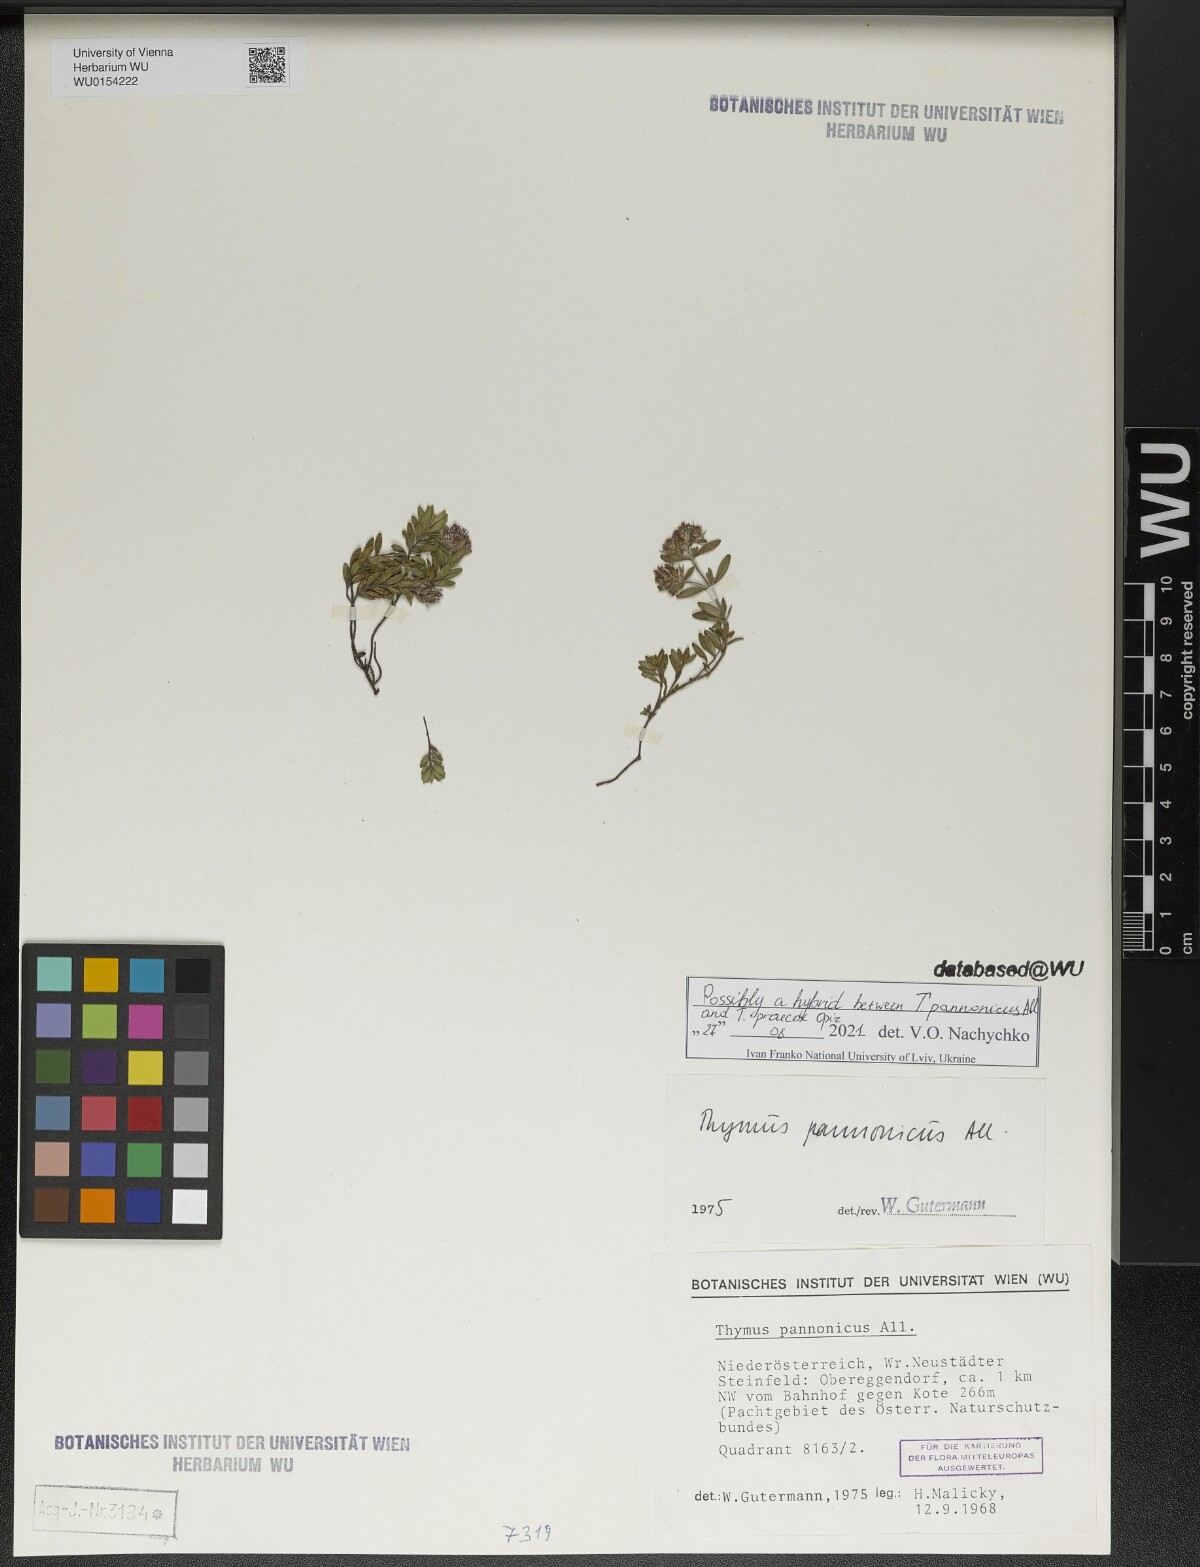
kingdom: Plantae
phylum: Tracheophyta
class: Magnoliopsida
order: Lamiales
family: Lamiaceae
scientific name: Lamiaceae
